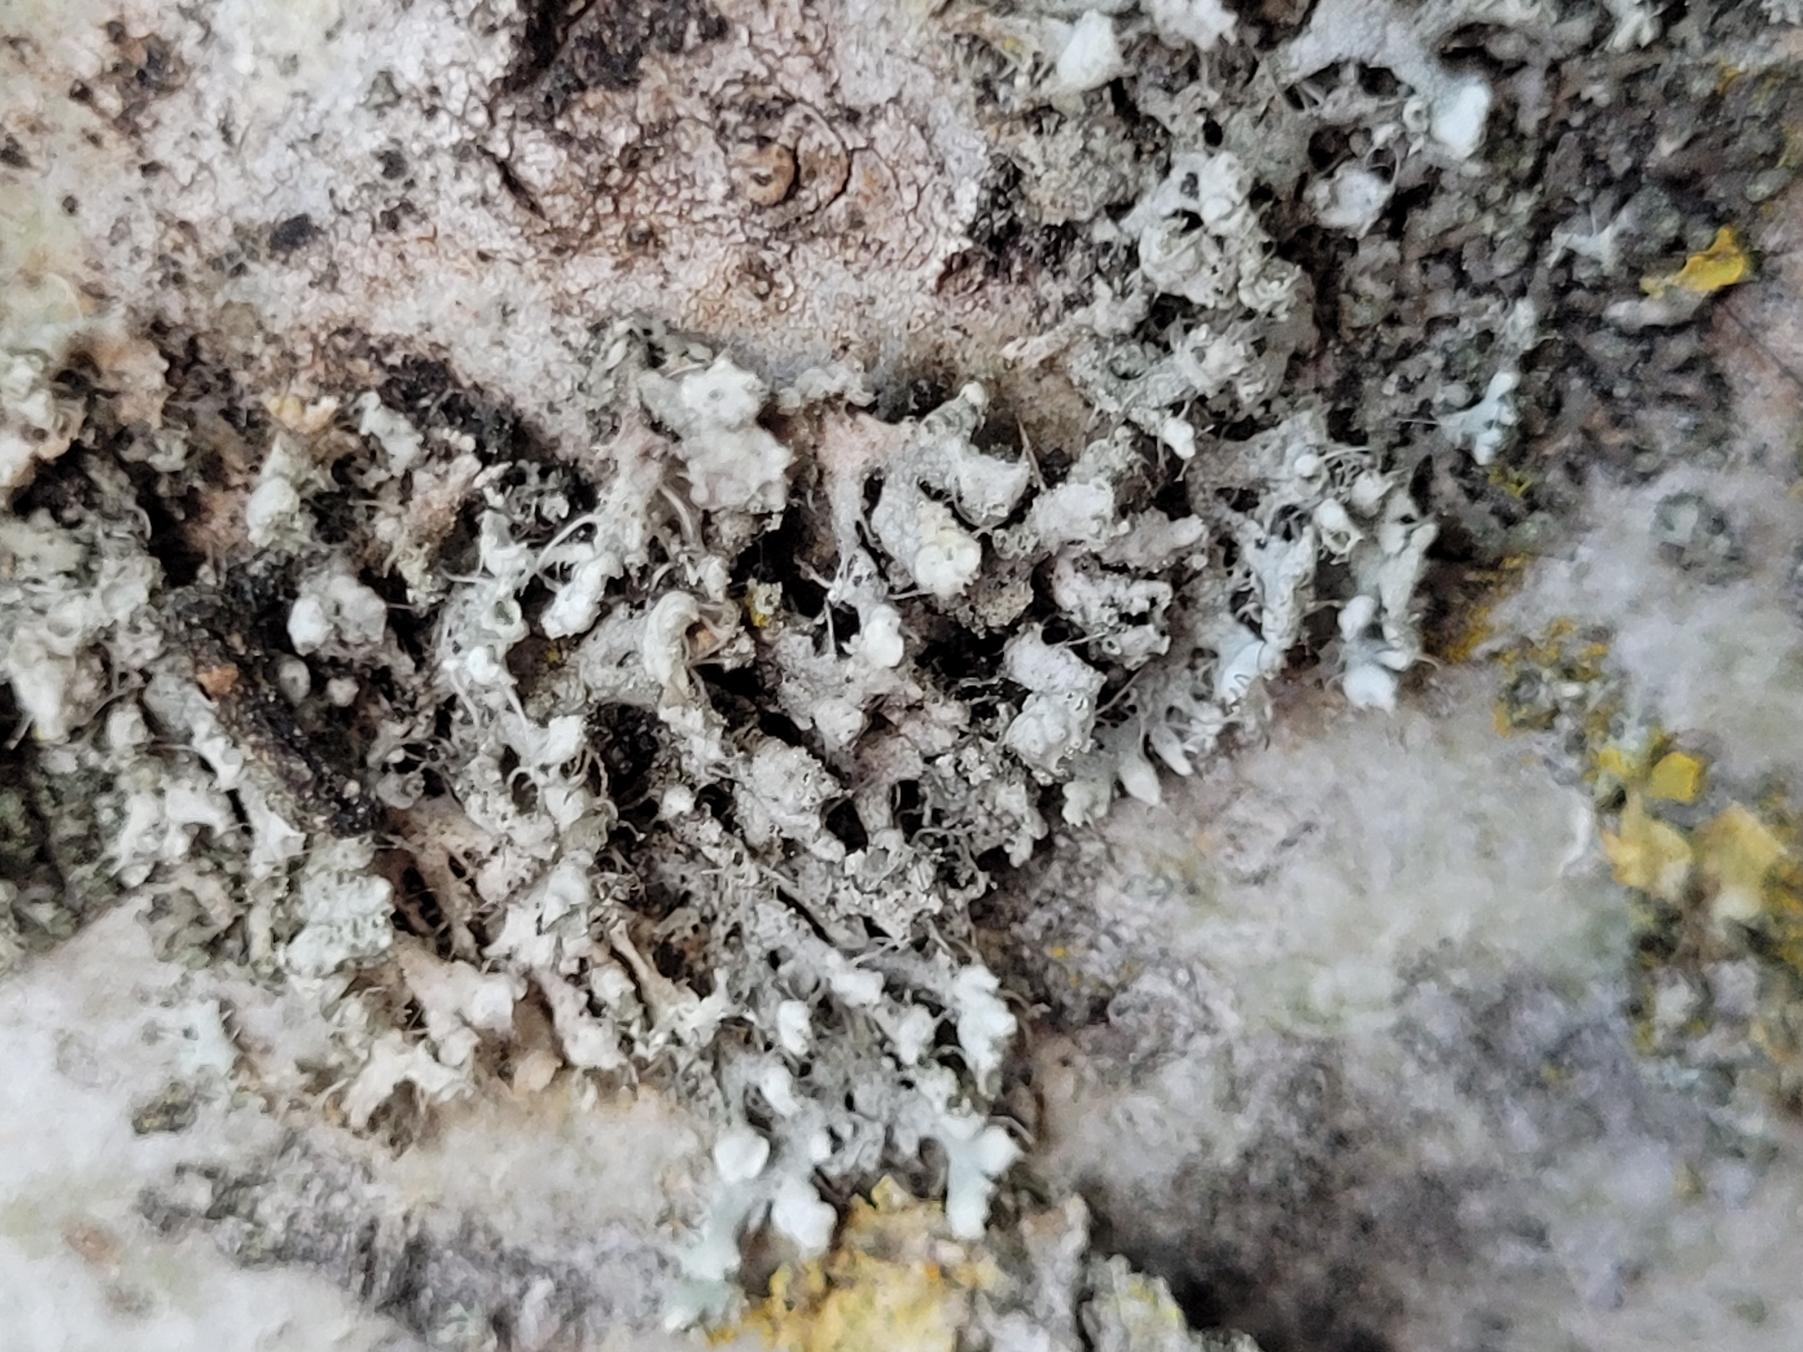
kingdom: Fungi
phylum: Ascomycota
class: Lecanoromycetes
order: Caliciales
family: Physciaceae
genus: Physcia
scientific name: Physcia adscendens
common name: Hætte-rosetlav
